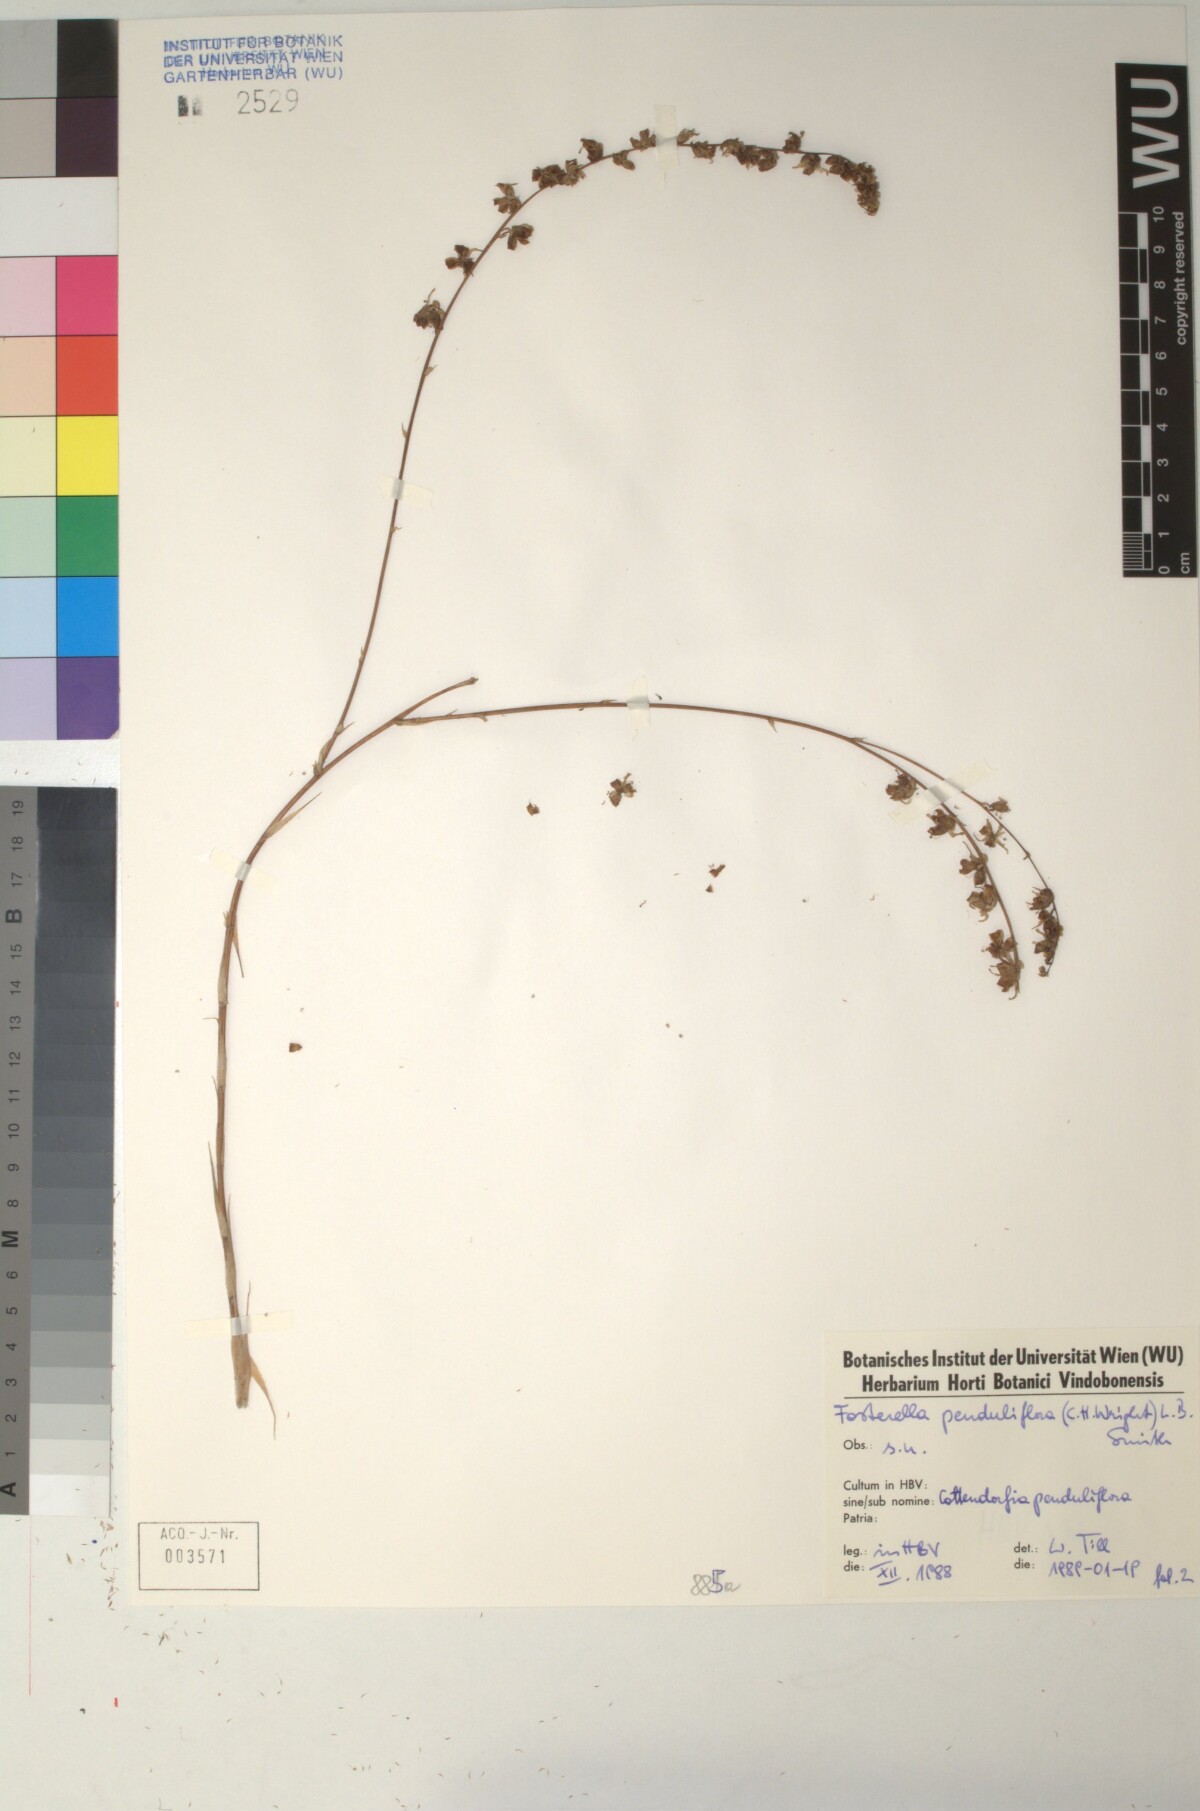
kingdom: Plantae
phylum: Tracheophyta
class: Liliopsida
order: Poales
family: Bromeliaceae
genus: Fosterella
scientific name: Fosterella penduliflora
